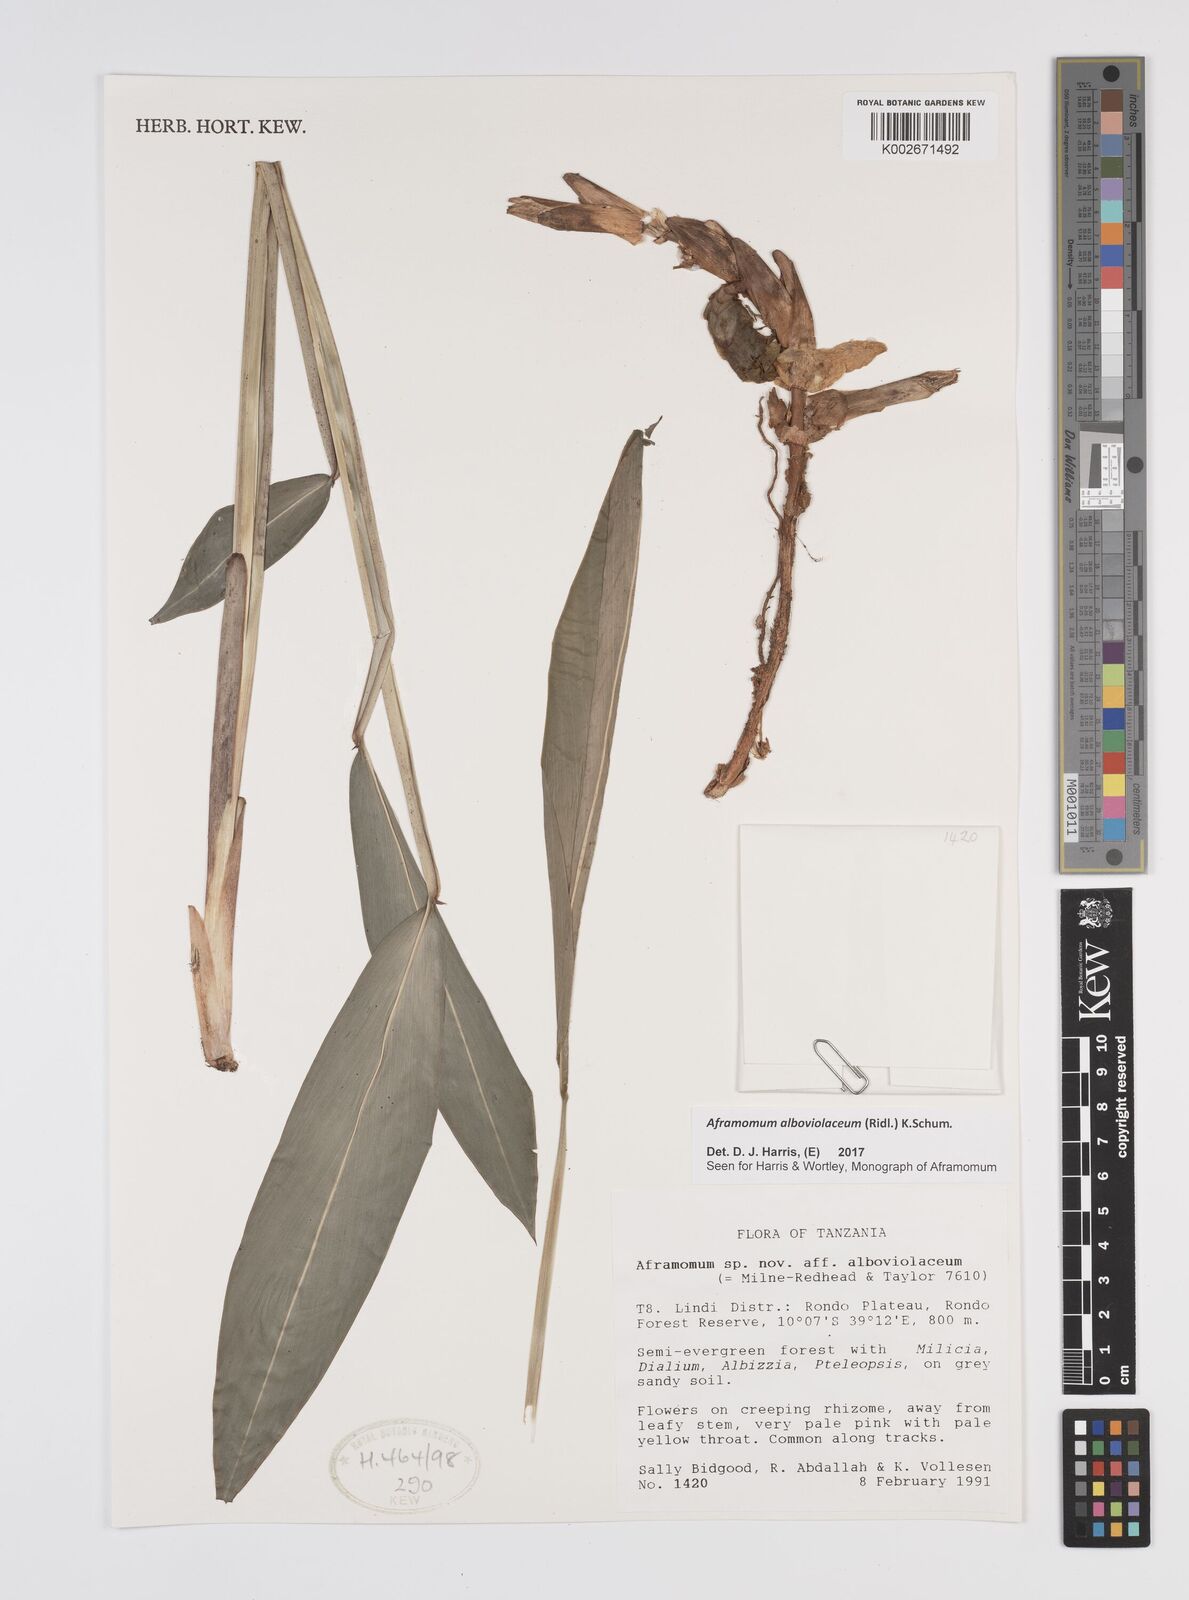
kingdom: Plantae
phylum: Tracheophyta
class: Liliopsida
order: Zingiberales
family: Zingiberaceae
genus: Aframomum
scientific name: Aframomum alboviolaceum
